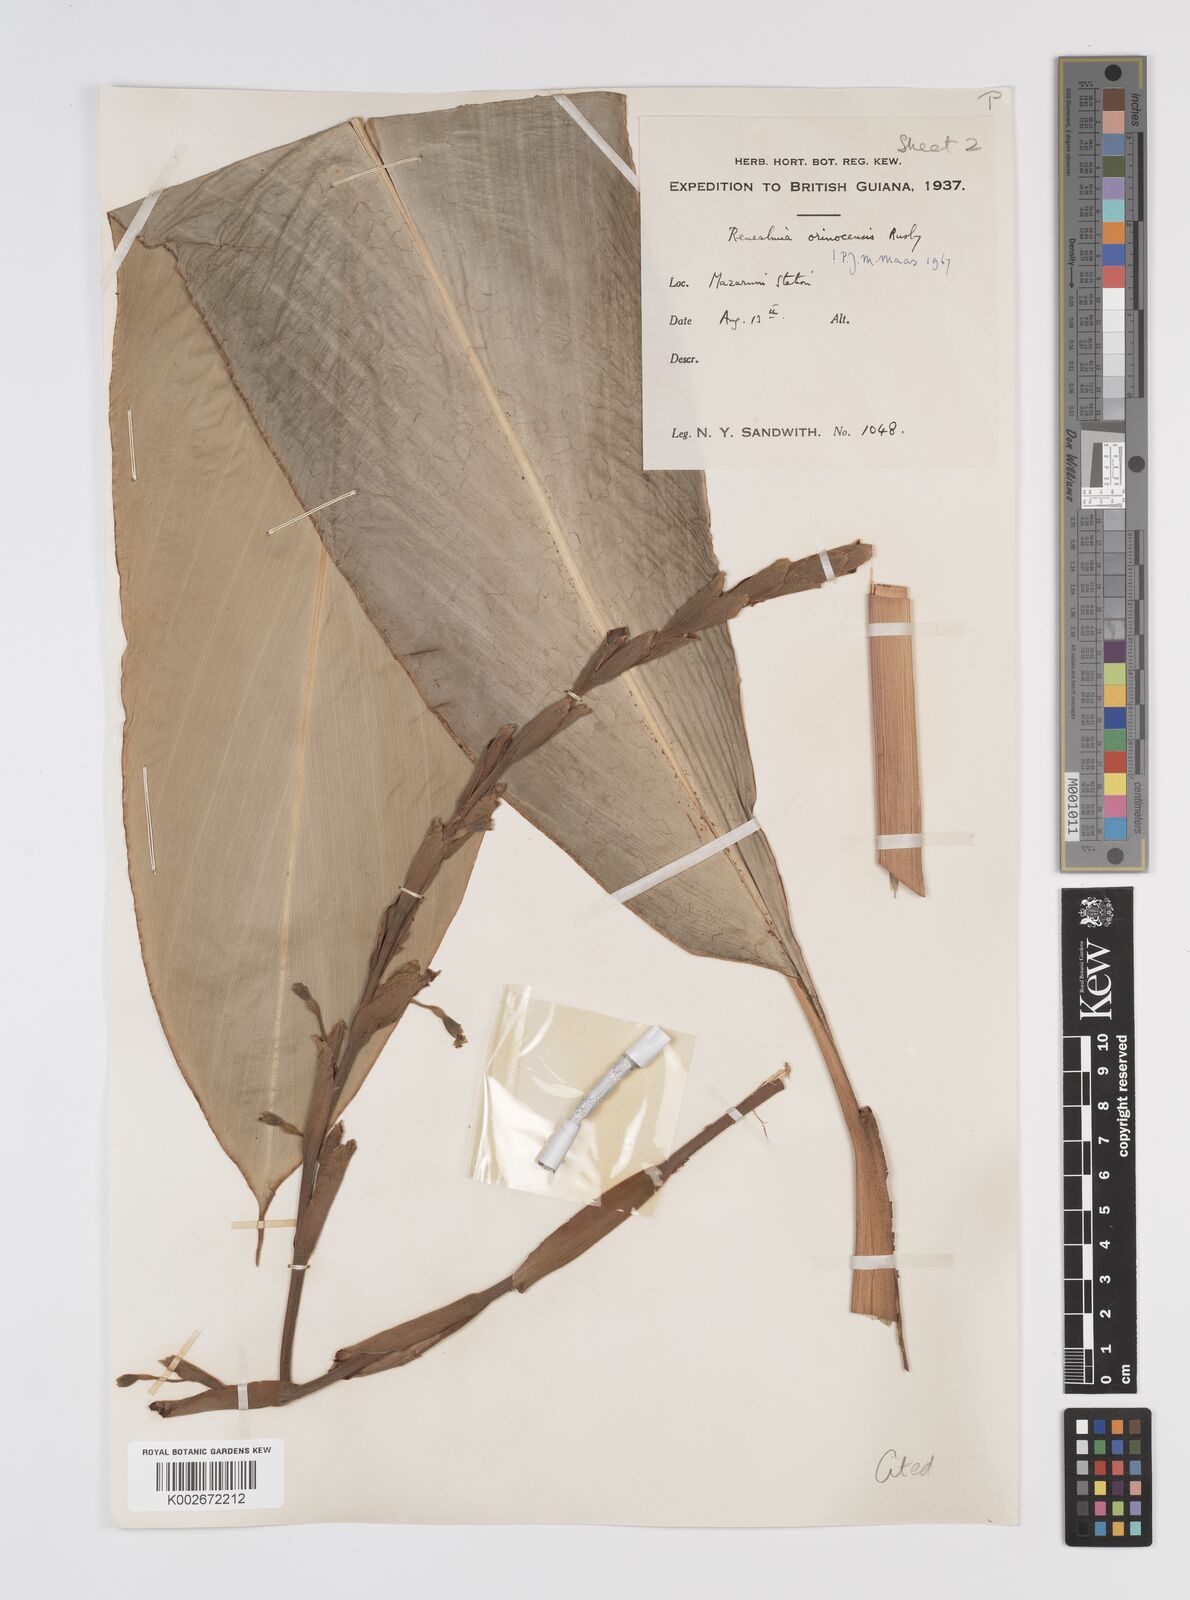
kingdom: Plantae
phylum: Tracheophyta
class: Liliopsida
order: Zingiberales
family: Zingiberaceae
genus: Renealmia
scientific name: Renealmia orinocensis
